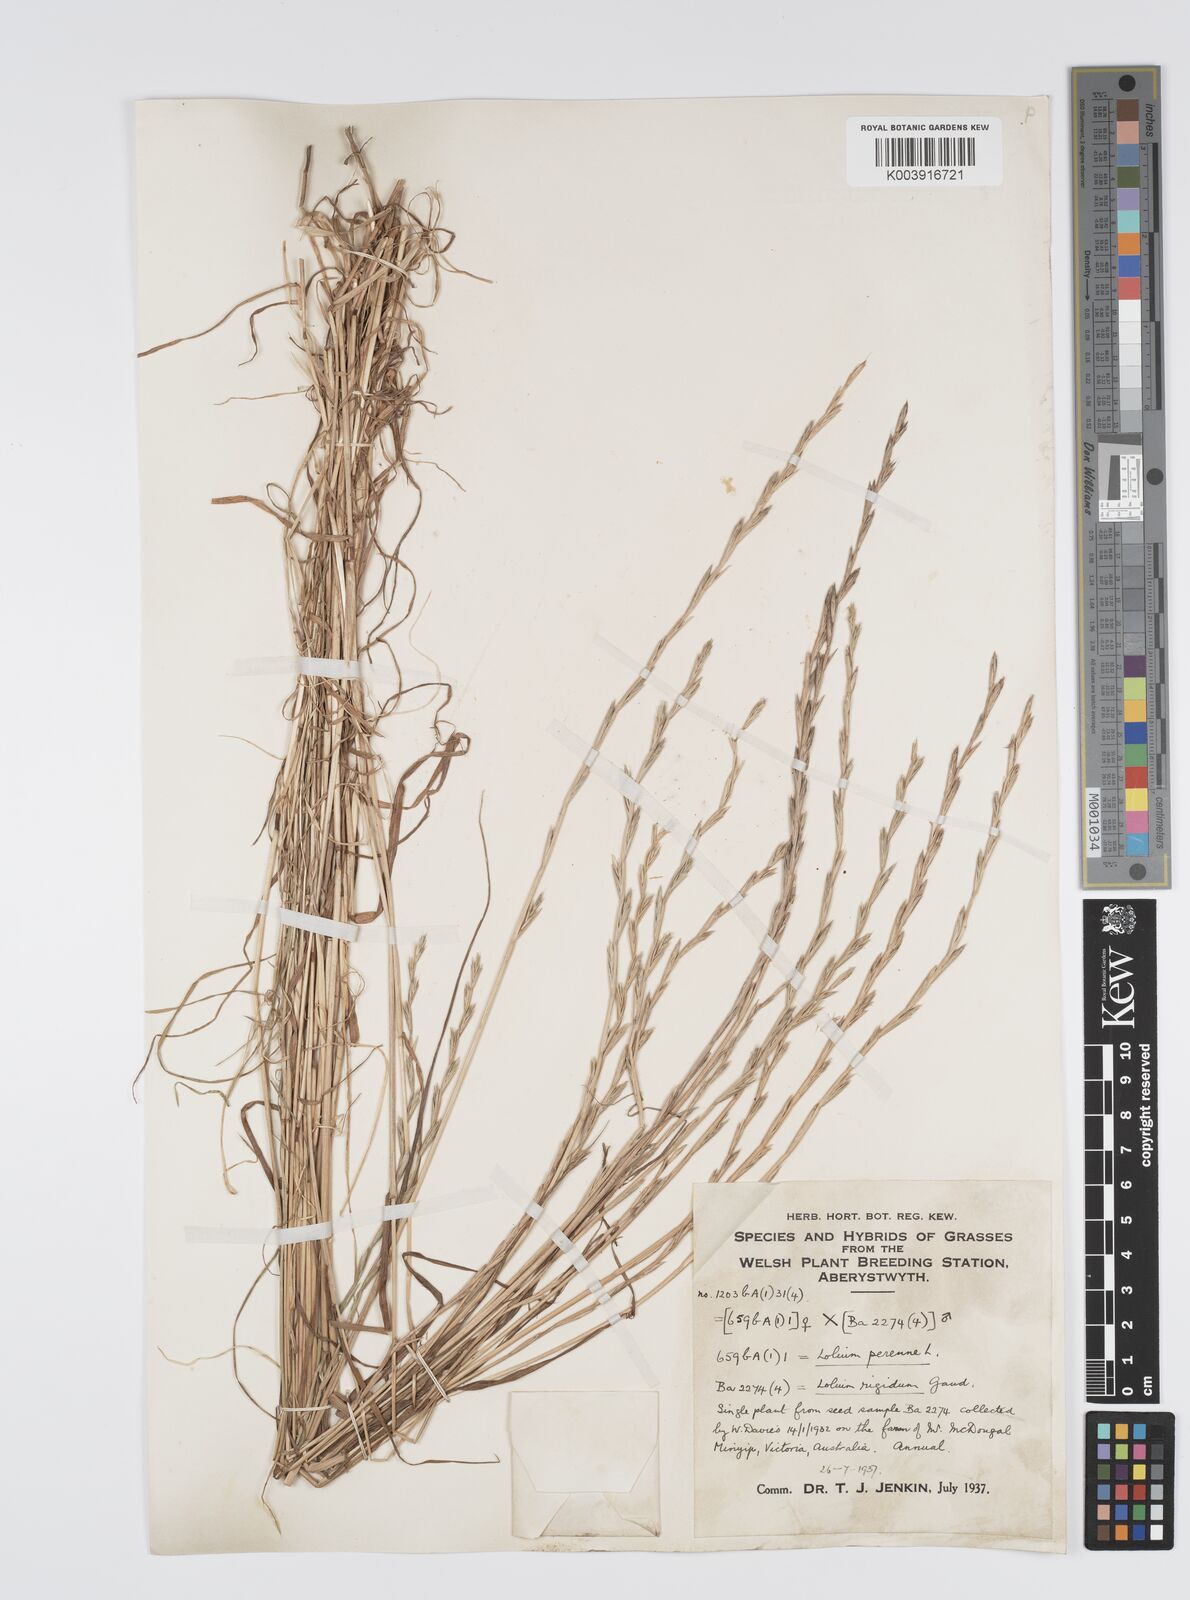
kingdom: Plantae
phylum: Tracheophyta
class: Liliopsida
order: Poales
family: Poaceae
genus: Lolium
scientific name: Lolium perenne
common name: Perennial ryegrass
